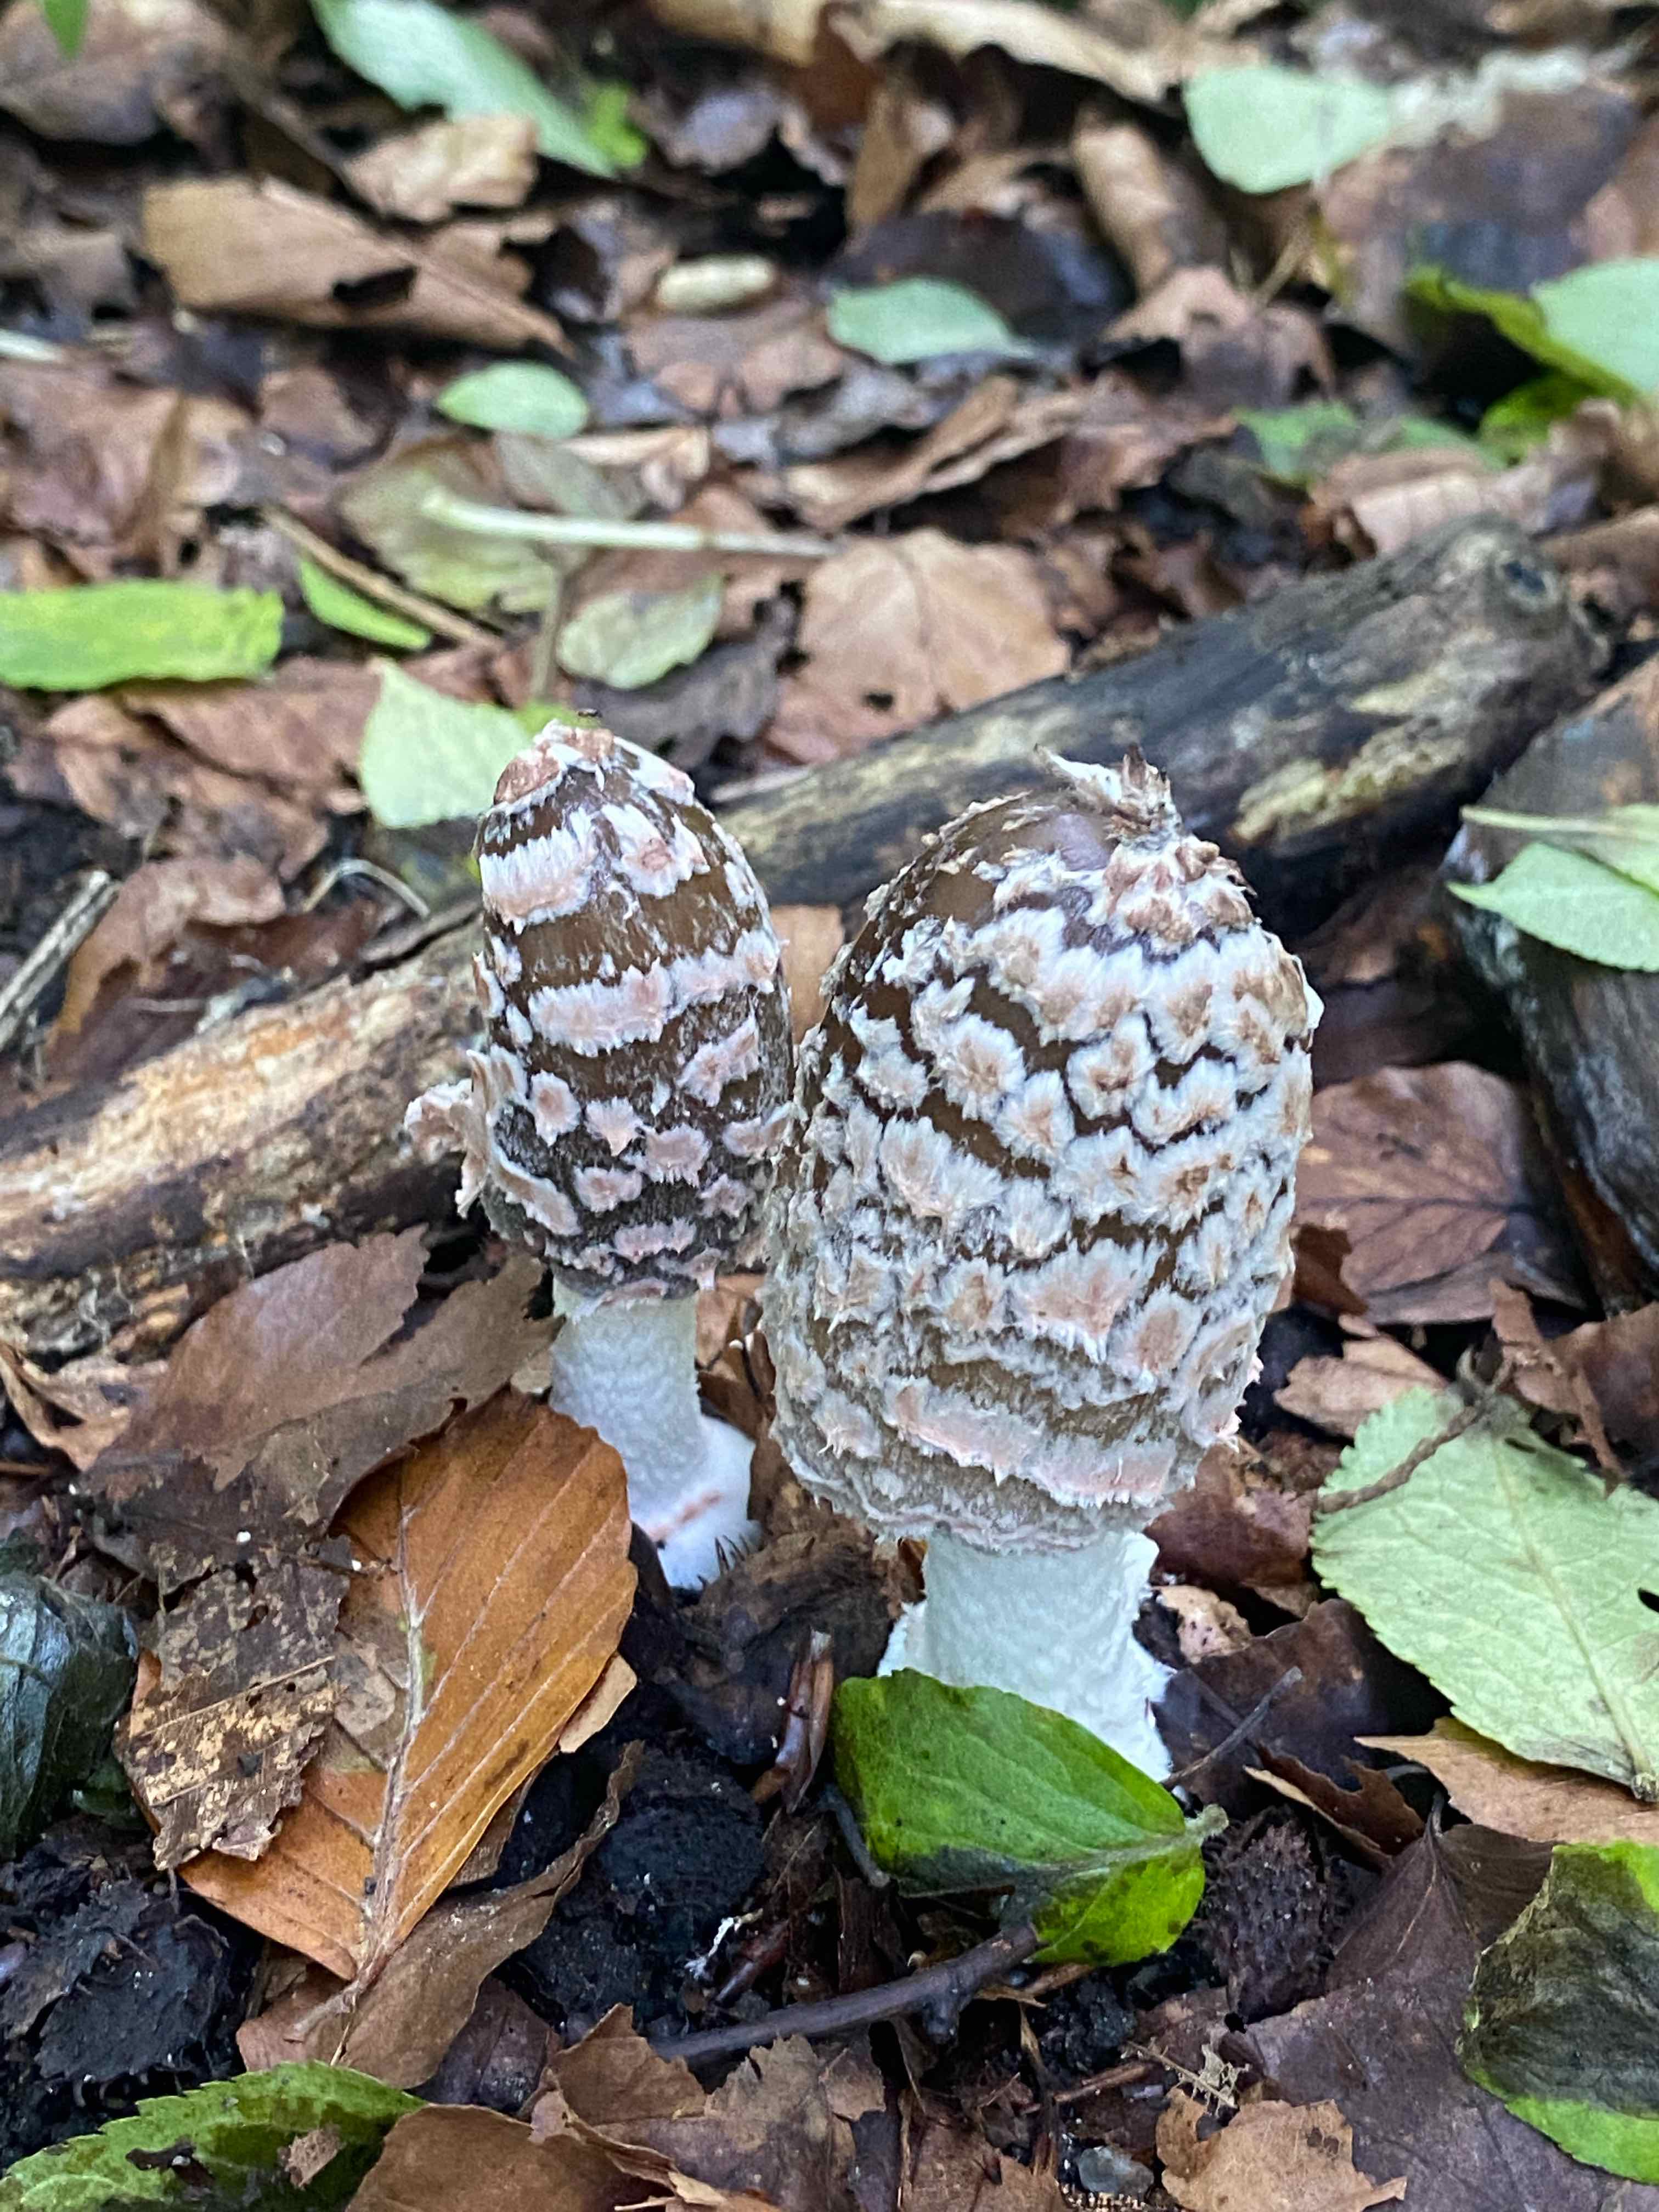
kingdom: Fungi
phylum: Basidiomycota
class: Agaricomycetes
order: Agaricales
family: Psathyrellaceae
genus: Coprinopsis
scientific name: Coprinopsis picacea
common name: skade-blækhat
